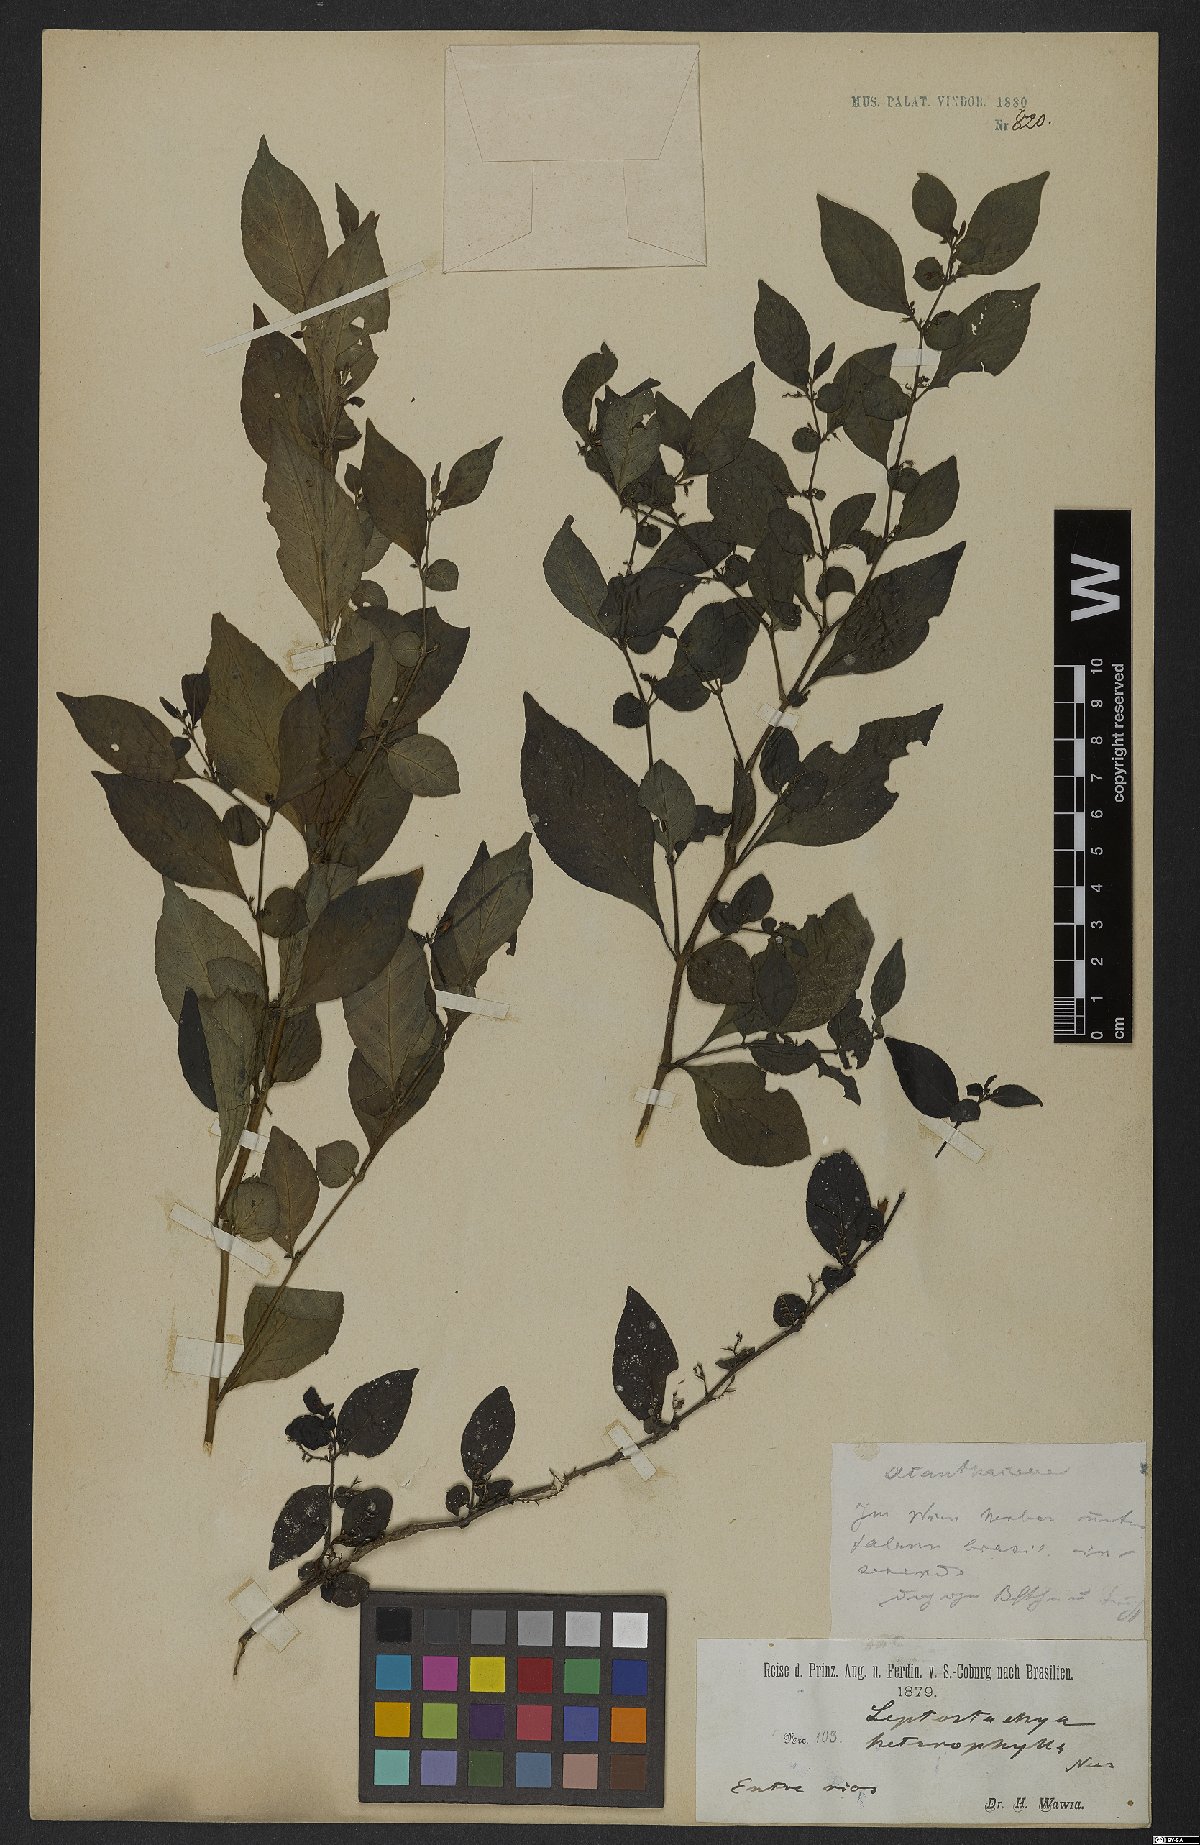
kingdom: Plantae
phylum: Tracheophyta
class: Magnoliopsida
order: Lamiales
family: Acanthaceae
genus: Justicia
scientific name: Justicia heterophylla
